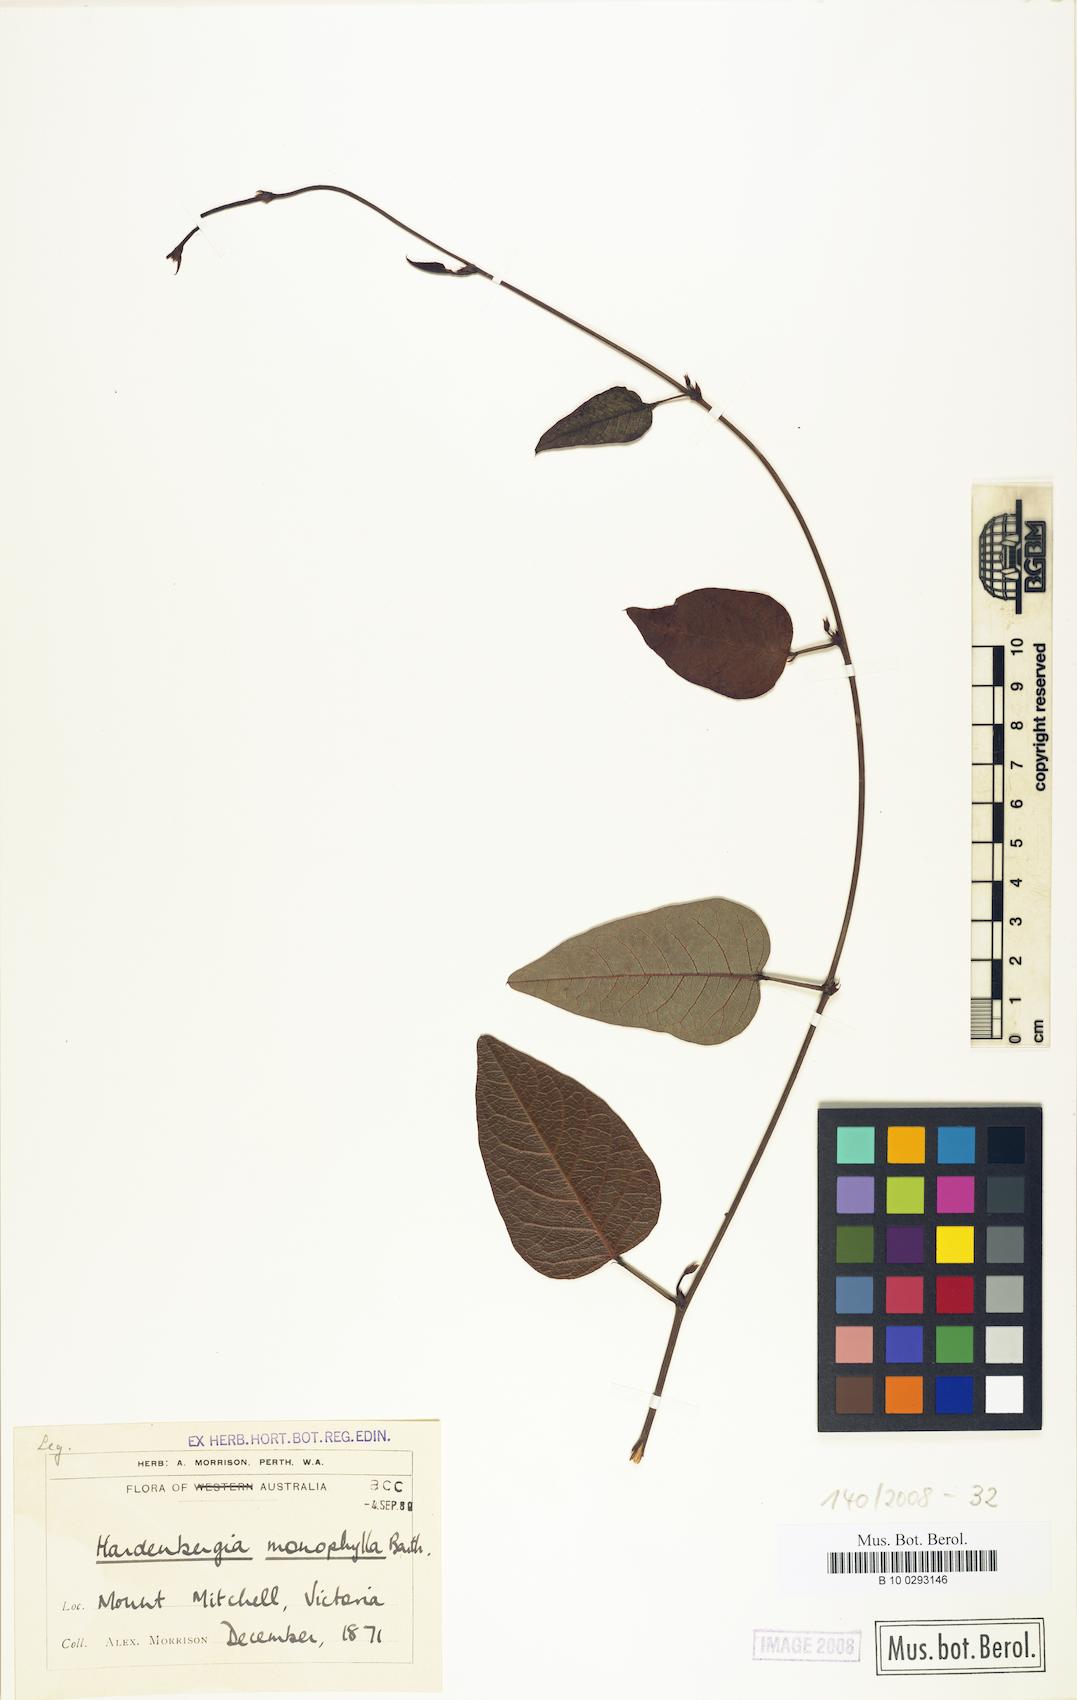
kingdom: Plantae
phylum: Tracheophyta
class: Magnoliopsida
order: Fabales
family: Fabaceae
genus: Hardenbergia
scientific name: Hardenbergia violacea
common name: Coral-pea
